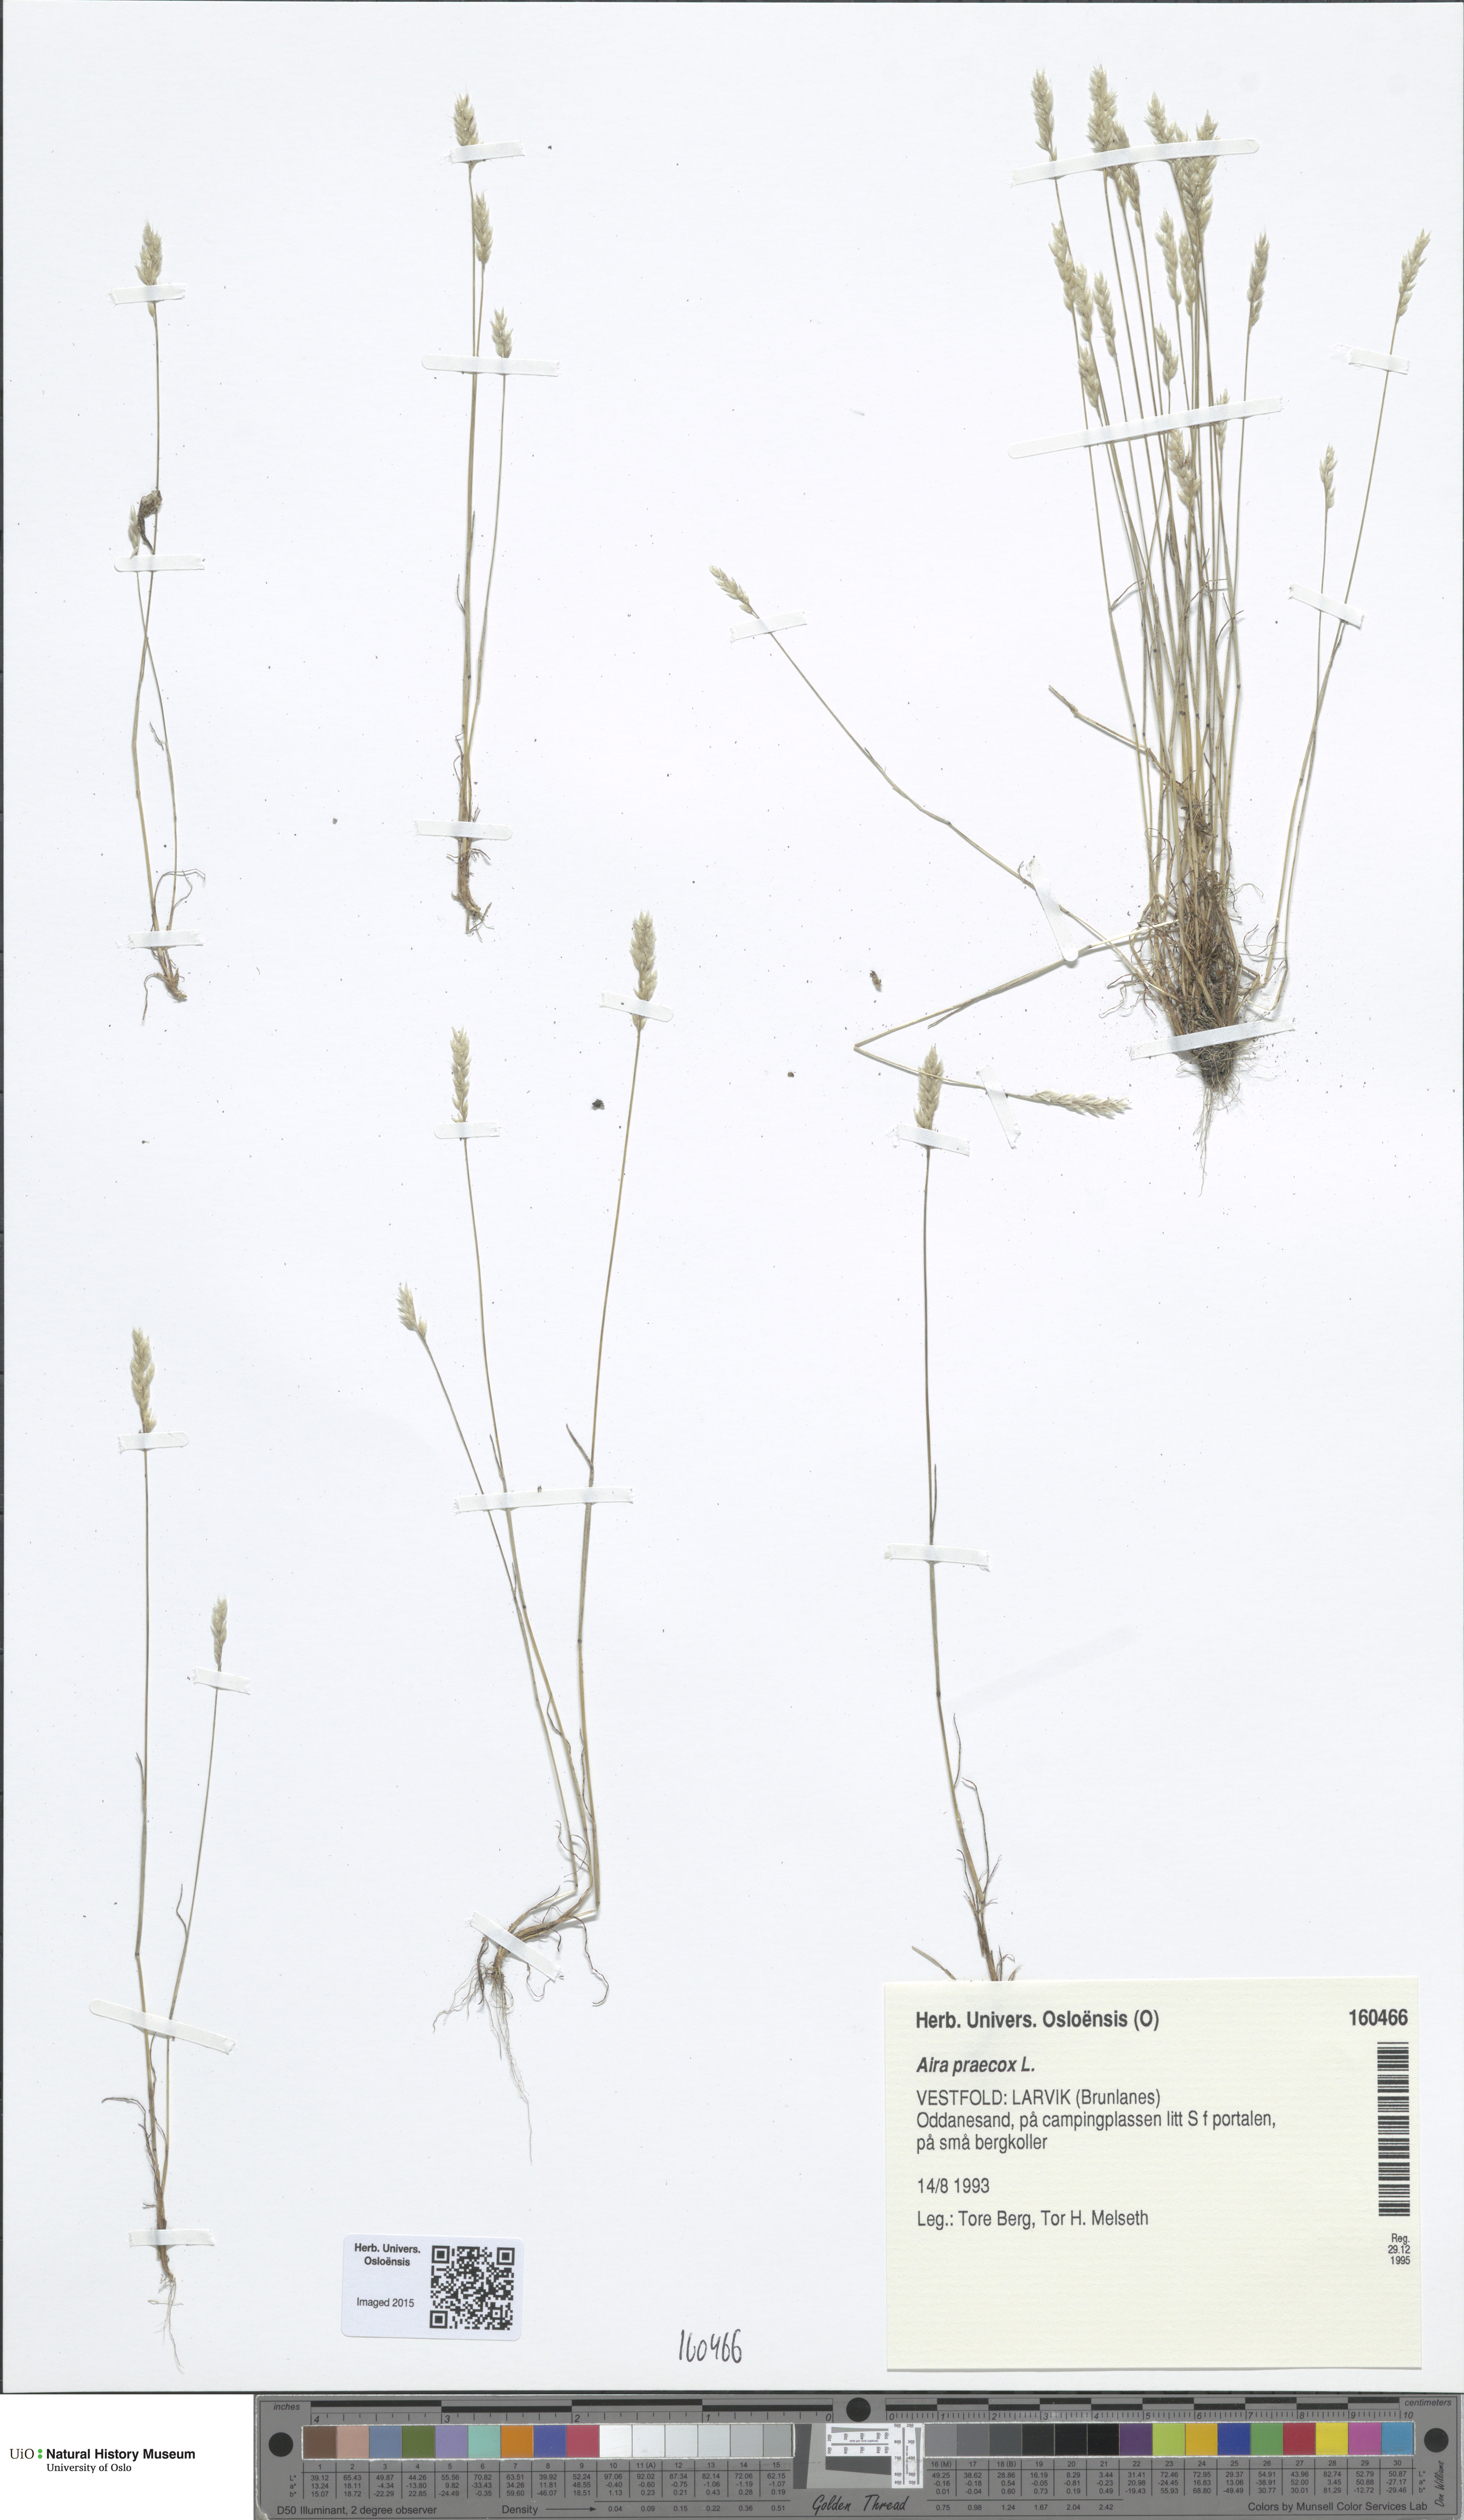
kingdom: Plantae
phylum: Tracheophyta
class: Liliopsida
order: Poales
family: Poaceae
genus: Aira
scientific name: Aira praecox
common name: Early hair-grass
